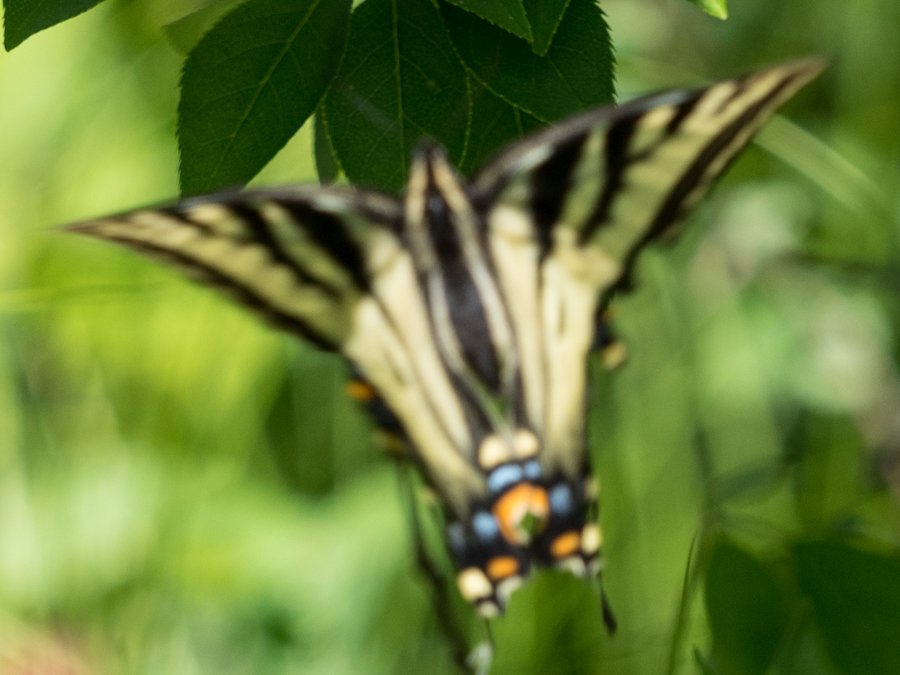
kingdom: Animalia
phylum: Arthropoda
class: Insecta
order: Lepidoptera
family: Papilionidae
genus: Pterourus
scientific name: Pterourus canadensis
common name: Canadian Tiger Swallowtail
